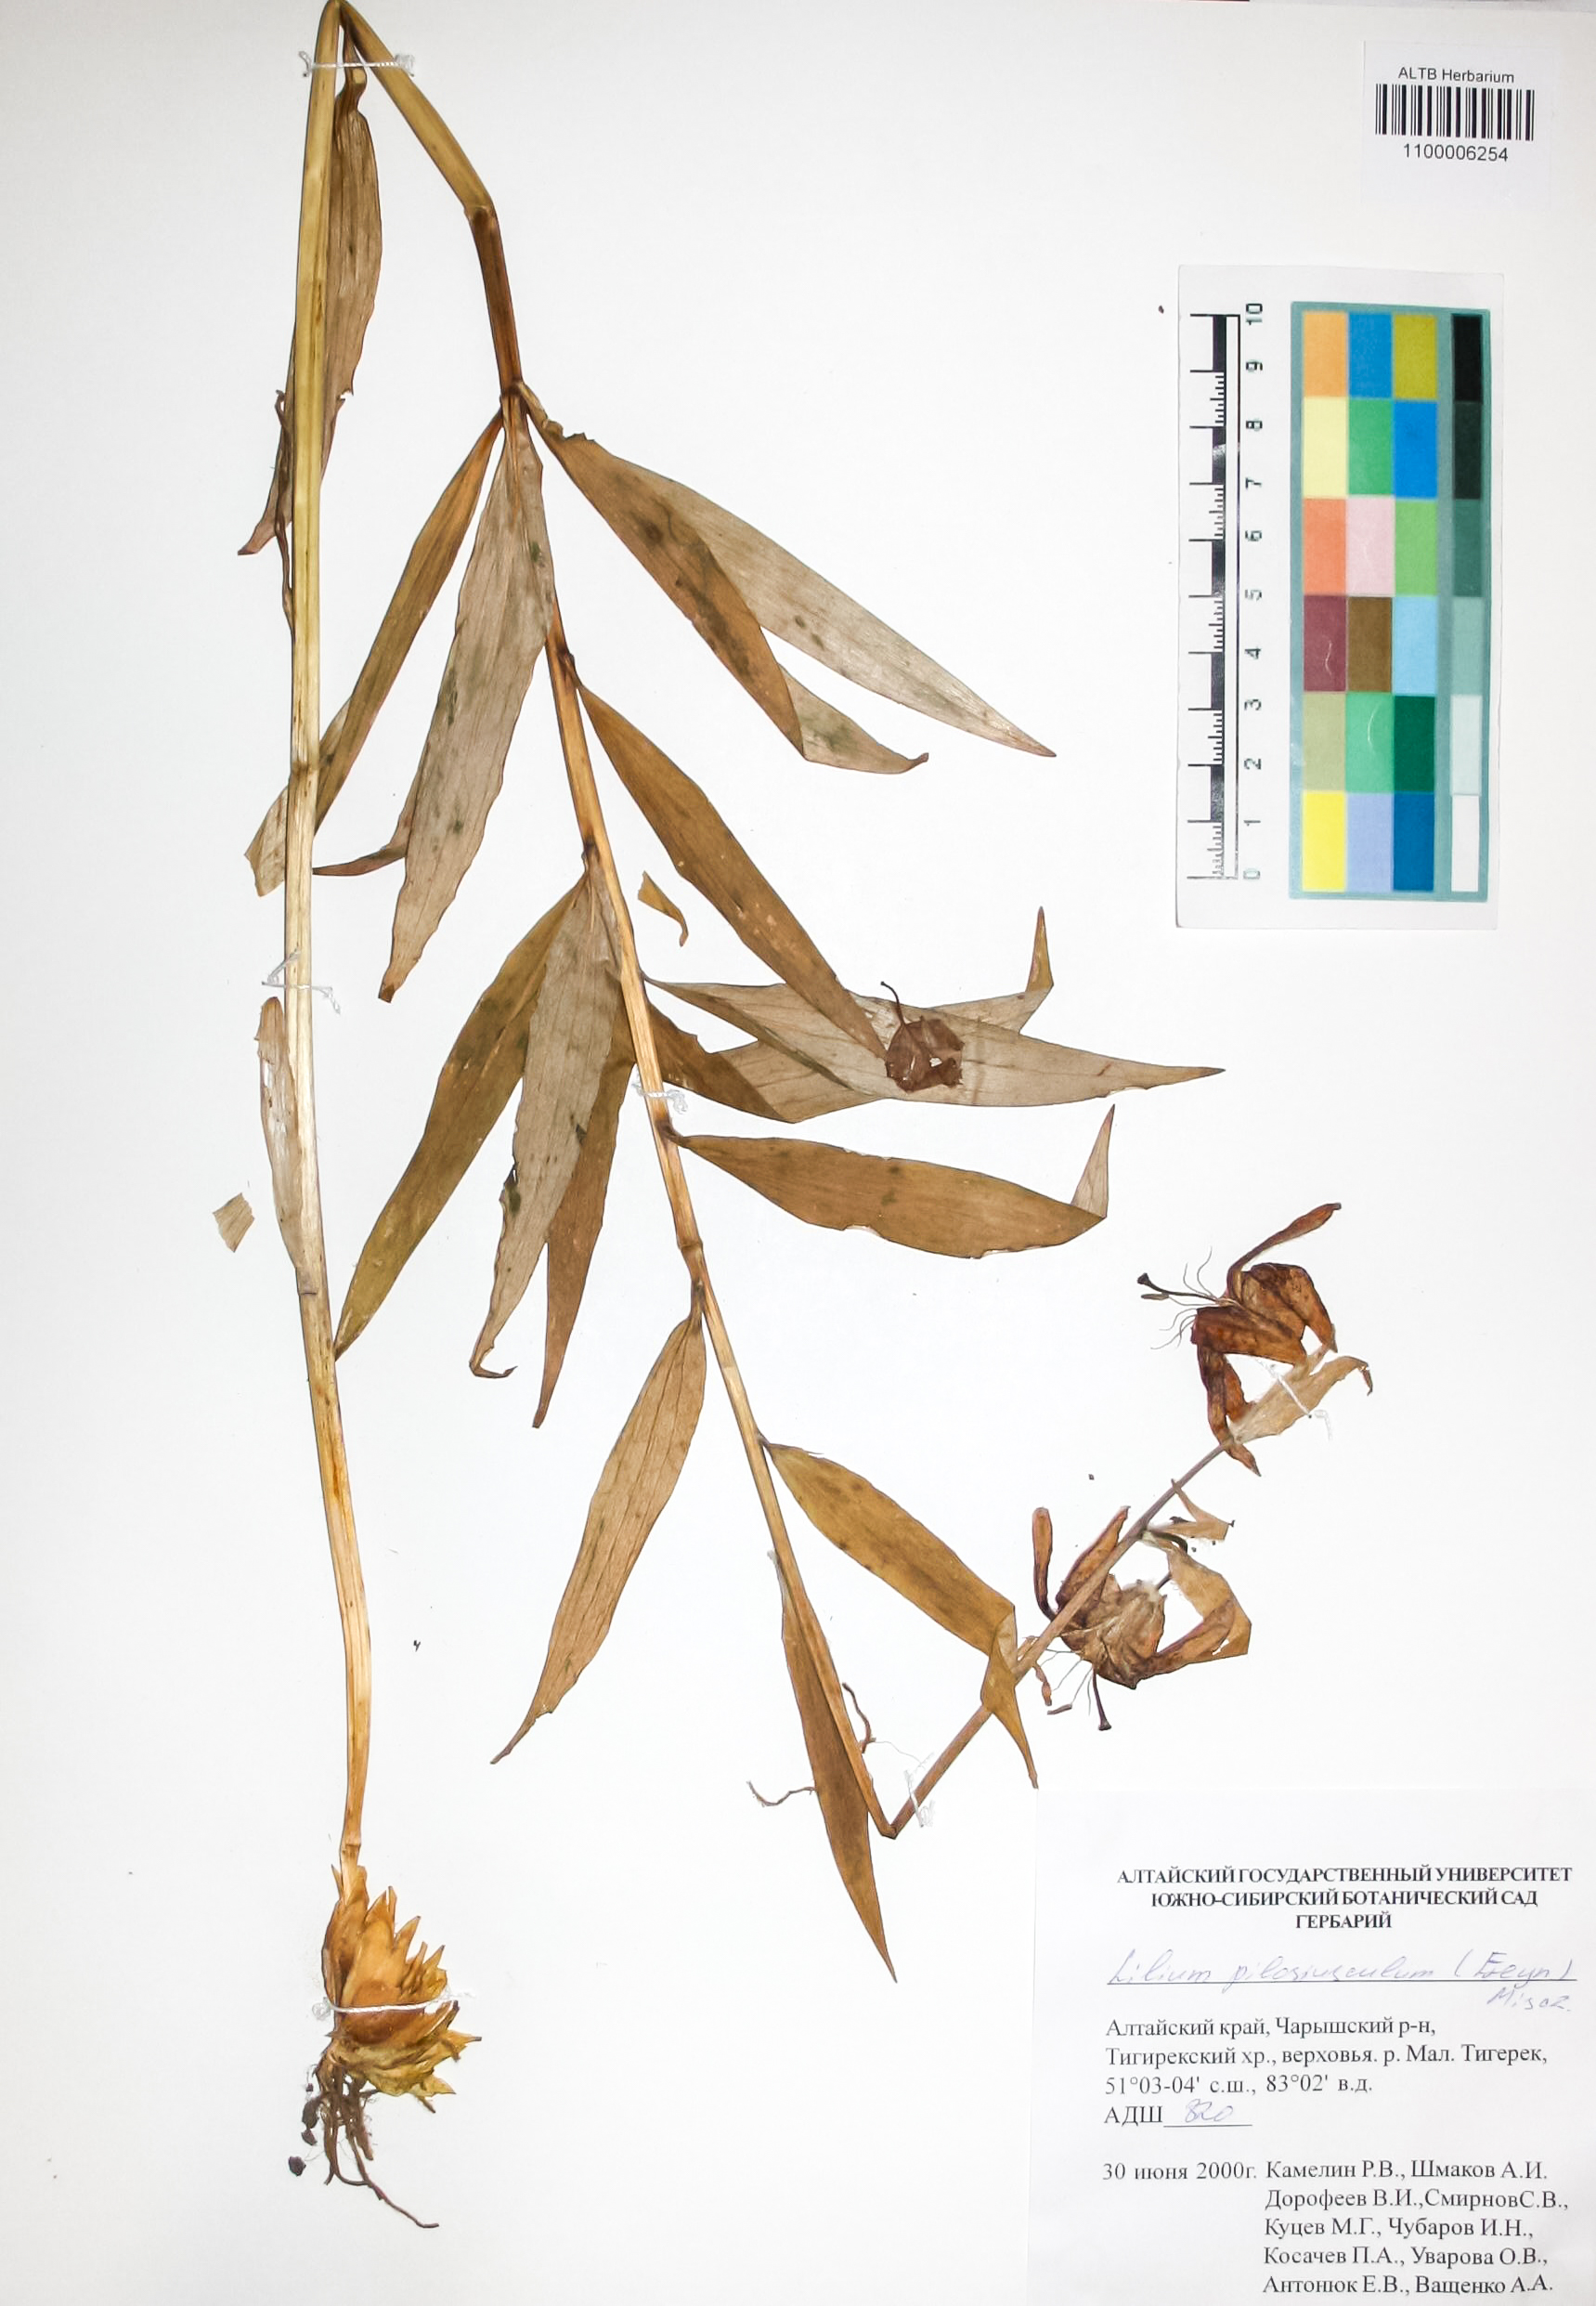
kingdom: Plantae
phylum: Tracheophyta
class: Liliopsida
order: Liliales
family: Liliaceae
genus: Lilium
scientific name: Lilium martagon
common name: Martagon lily
